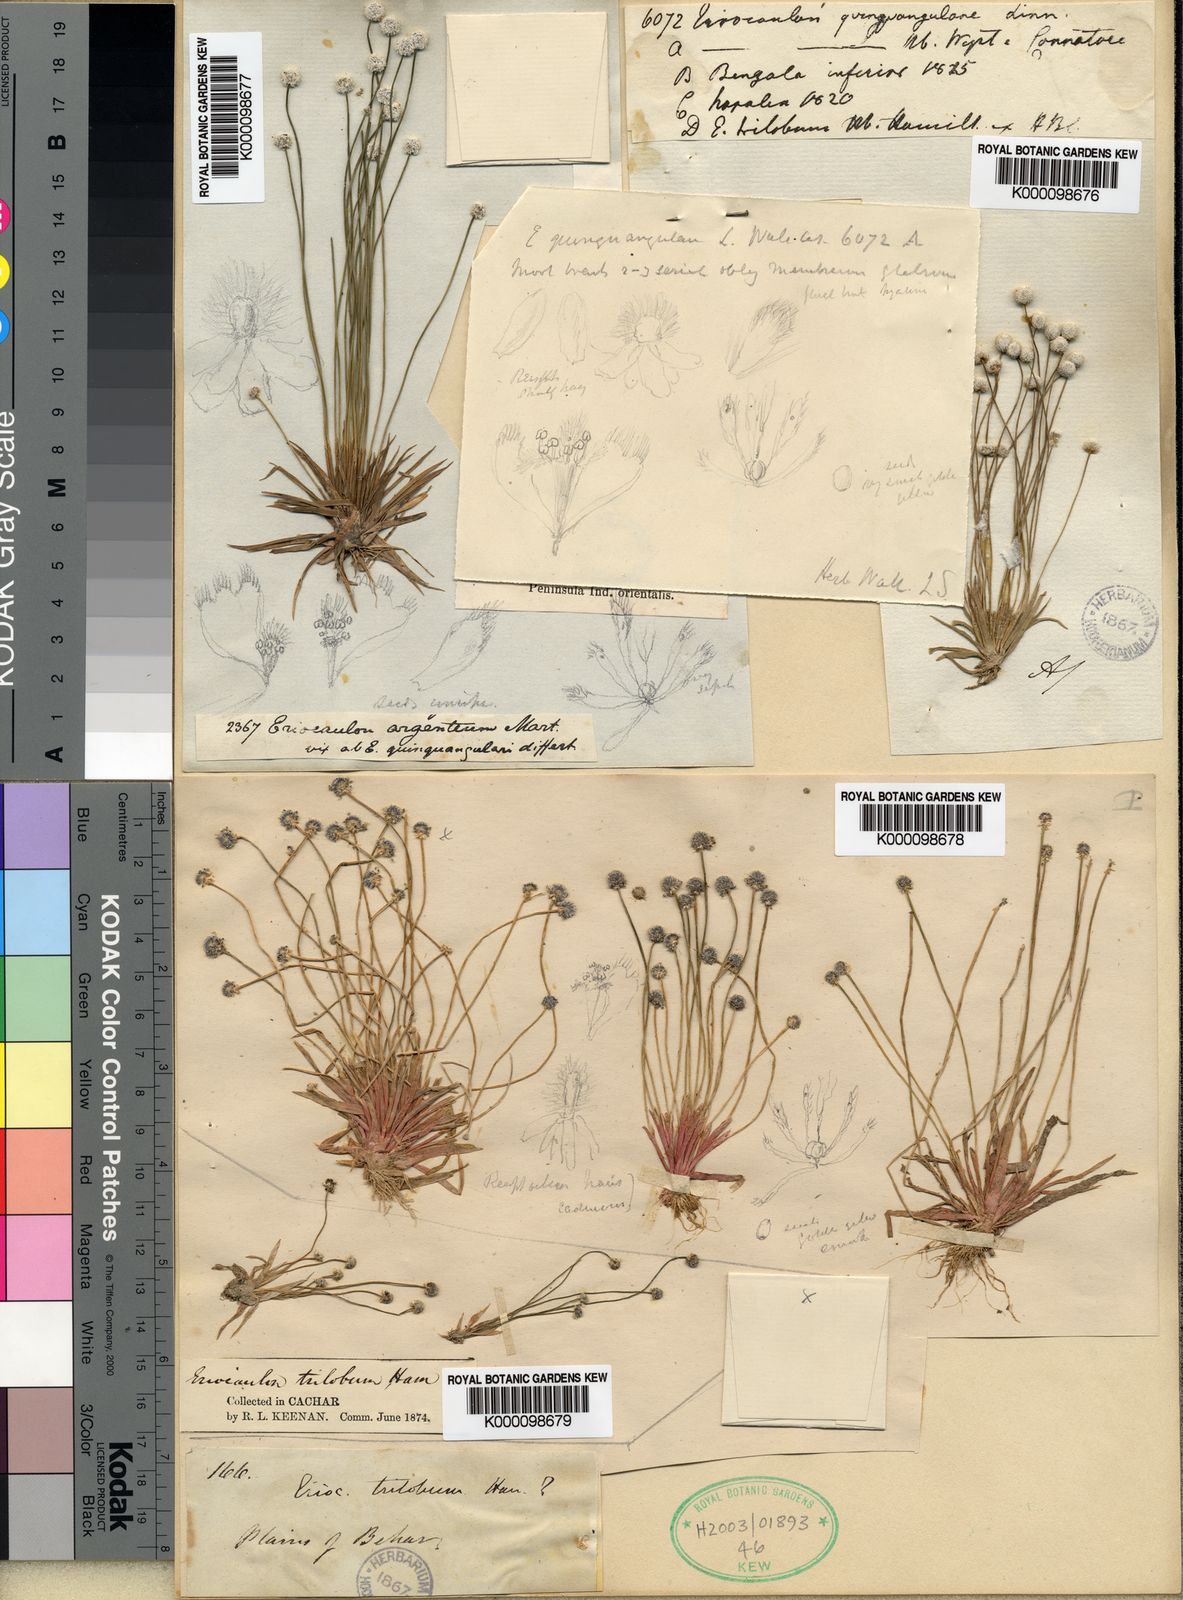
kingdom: Plantae
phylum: Tracheophyta
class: Liliopsida
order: Poales
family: Eriocaulaceae
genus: Eriocaulon
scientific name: Eriocaulon quinquangulare
